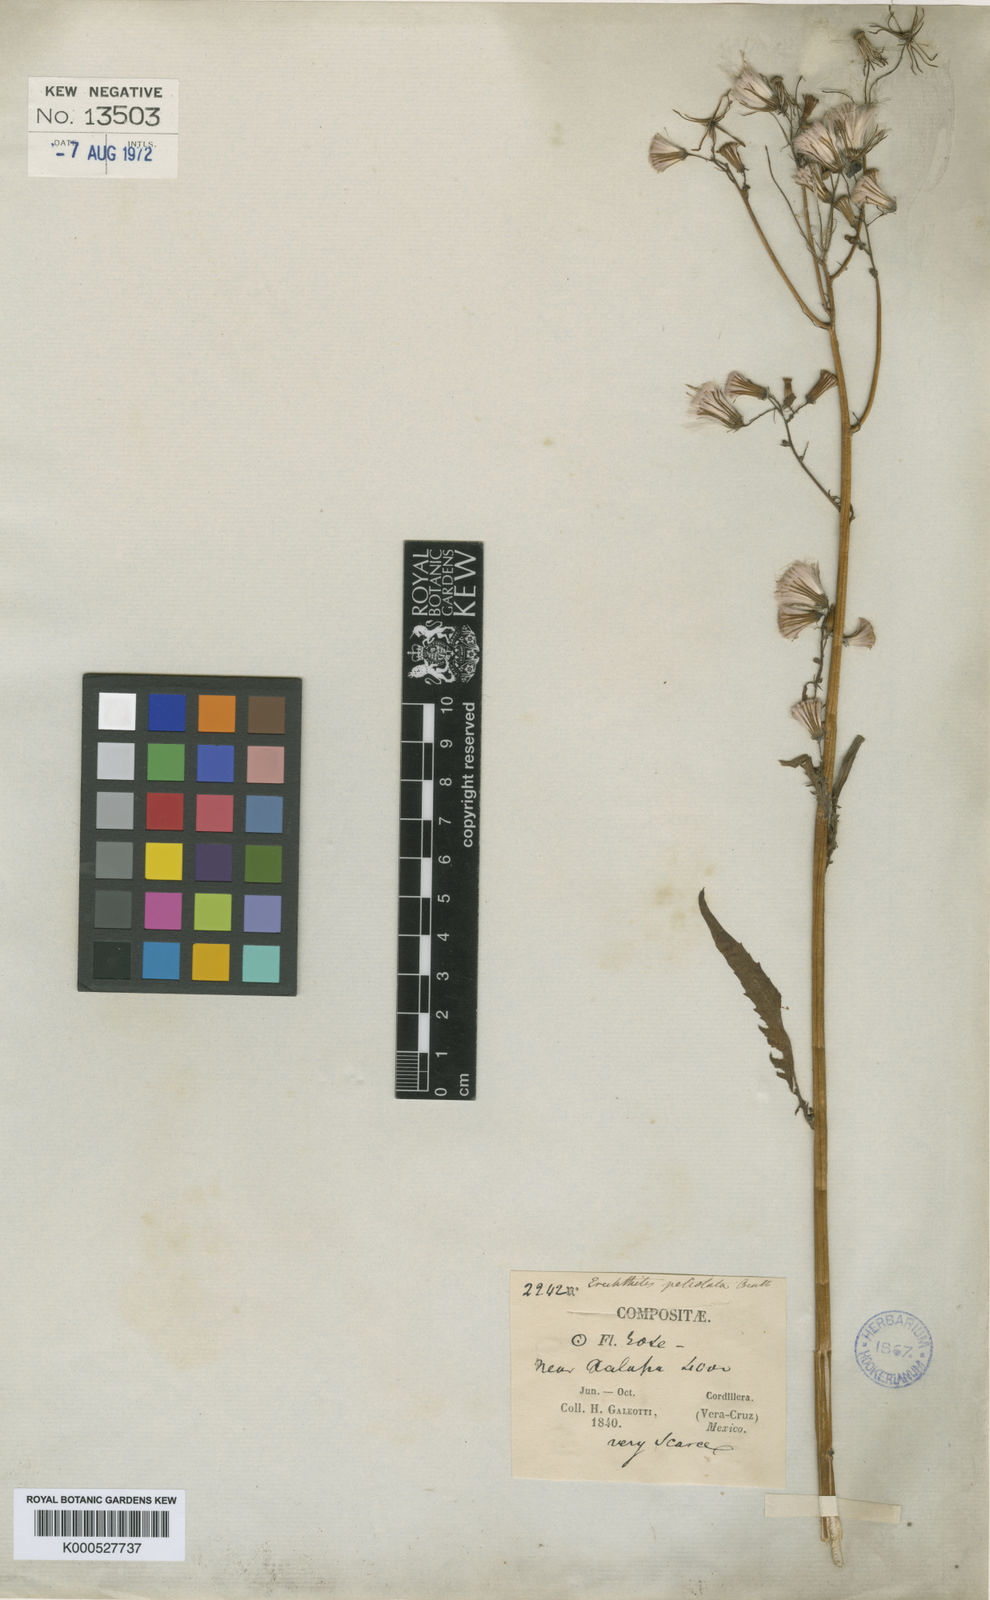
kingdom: Plantae
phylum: Tracheophyta
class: Magnoliopsida
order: Asterales
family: Asteraceae
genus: Erechtites
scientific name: Erechtites albiflorus
